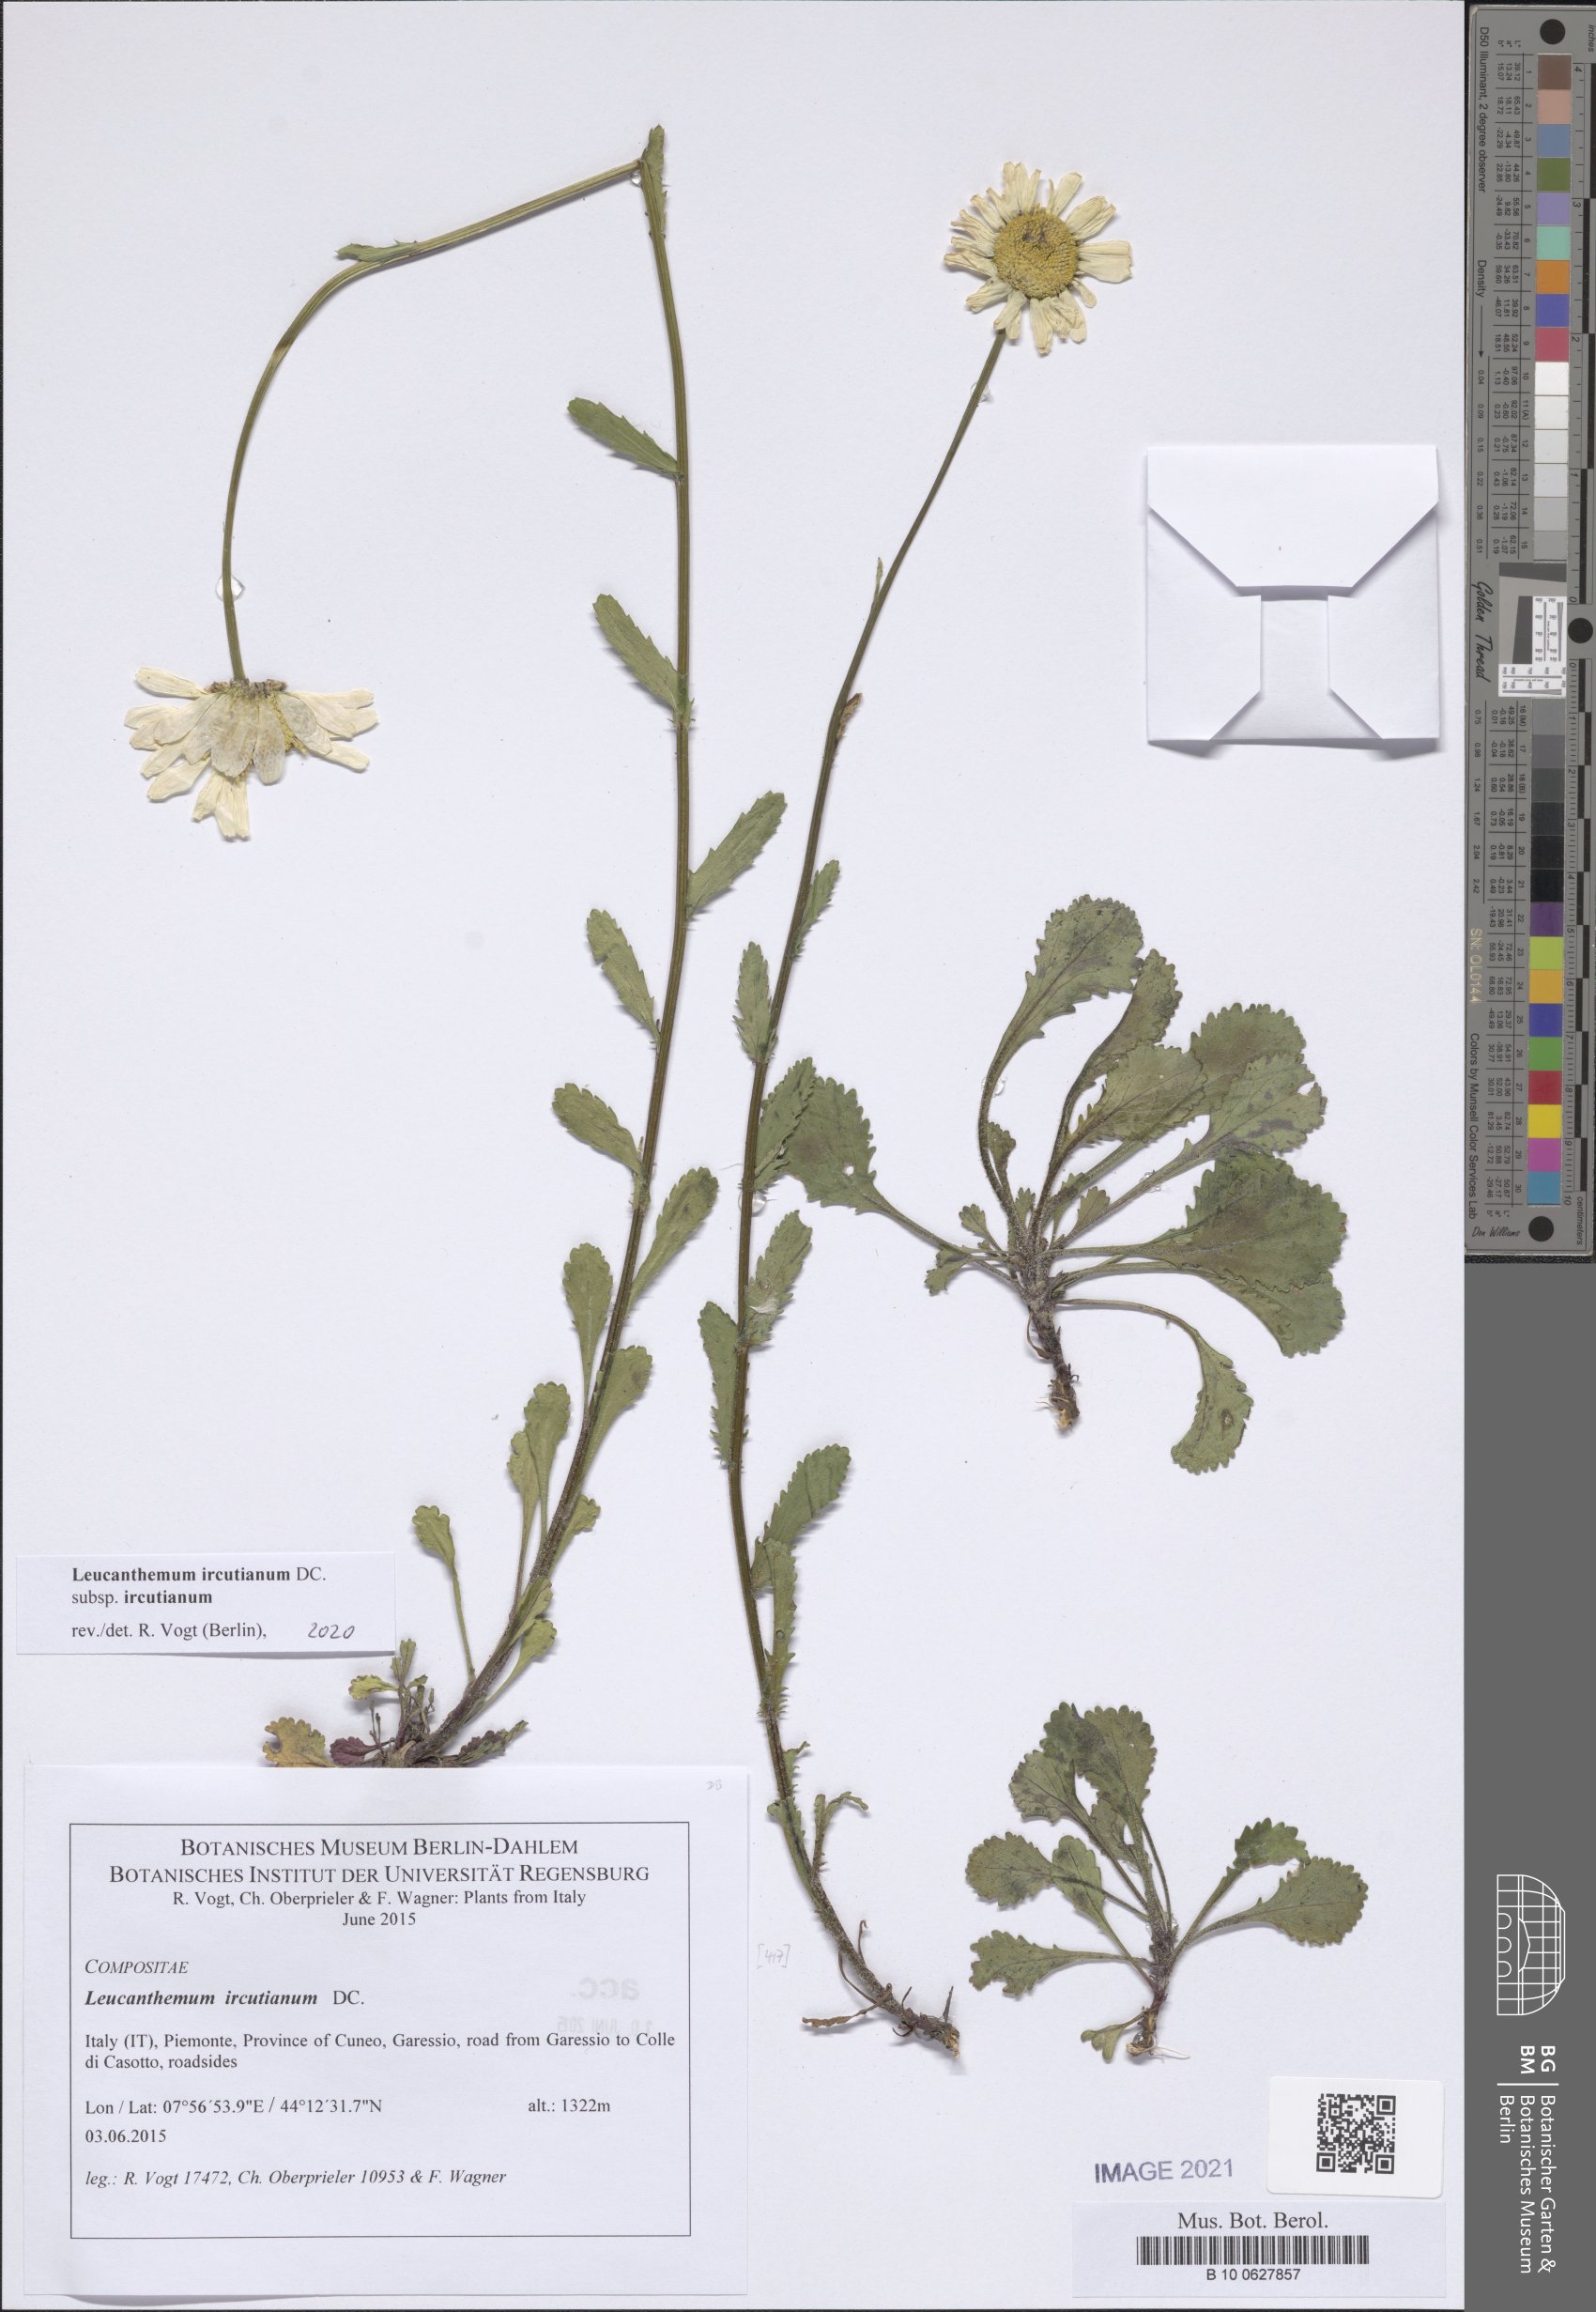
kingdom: Plantae
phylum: Tracheophyta
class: Magnoliopsida
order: Asterales
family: Asteraceae
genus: Leucanthemum
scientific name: Leucanthemum ircutianum
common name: Daisy
